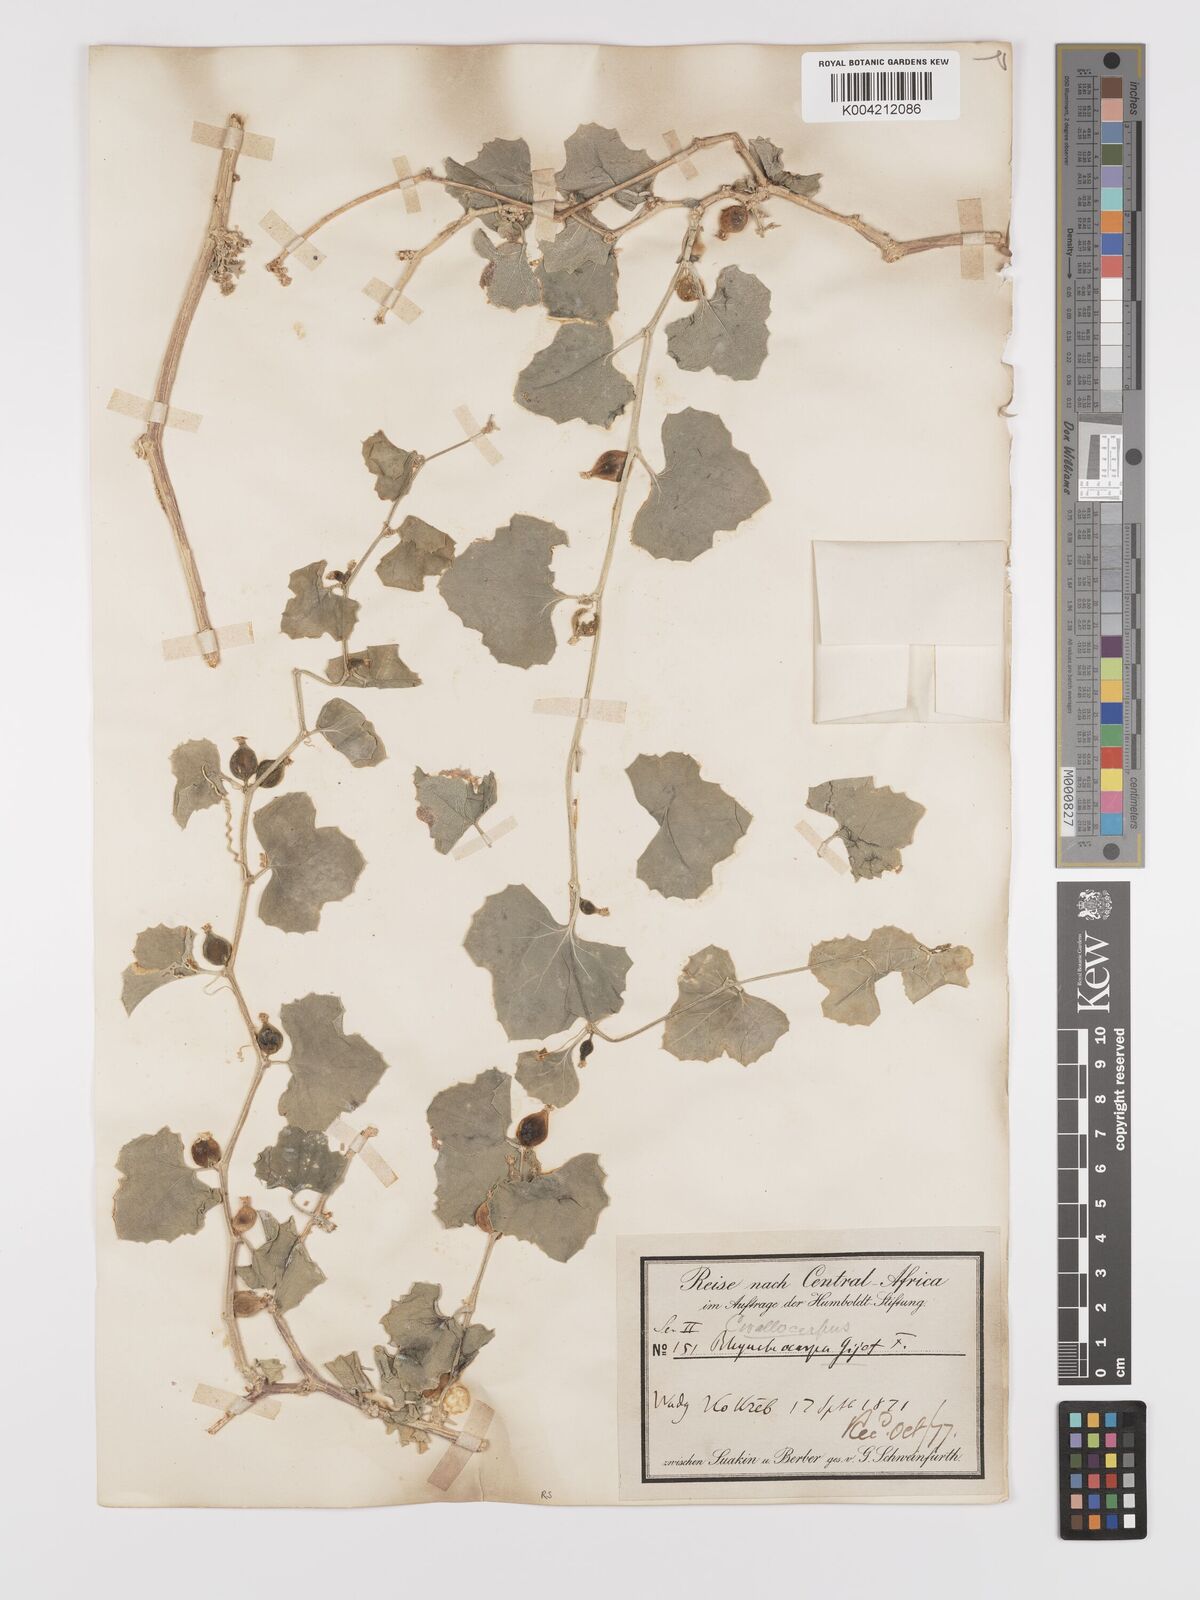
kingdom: Plantae
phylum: Tracheophyta
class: Magnoliopsida
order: Cucurbitales
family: Cucurbitaceae
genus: Kedrostis
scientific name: Kedrostis gijef
